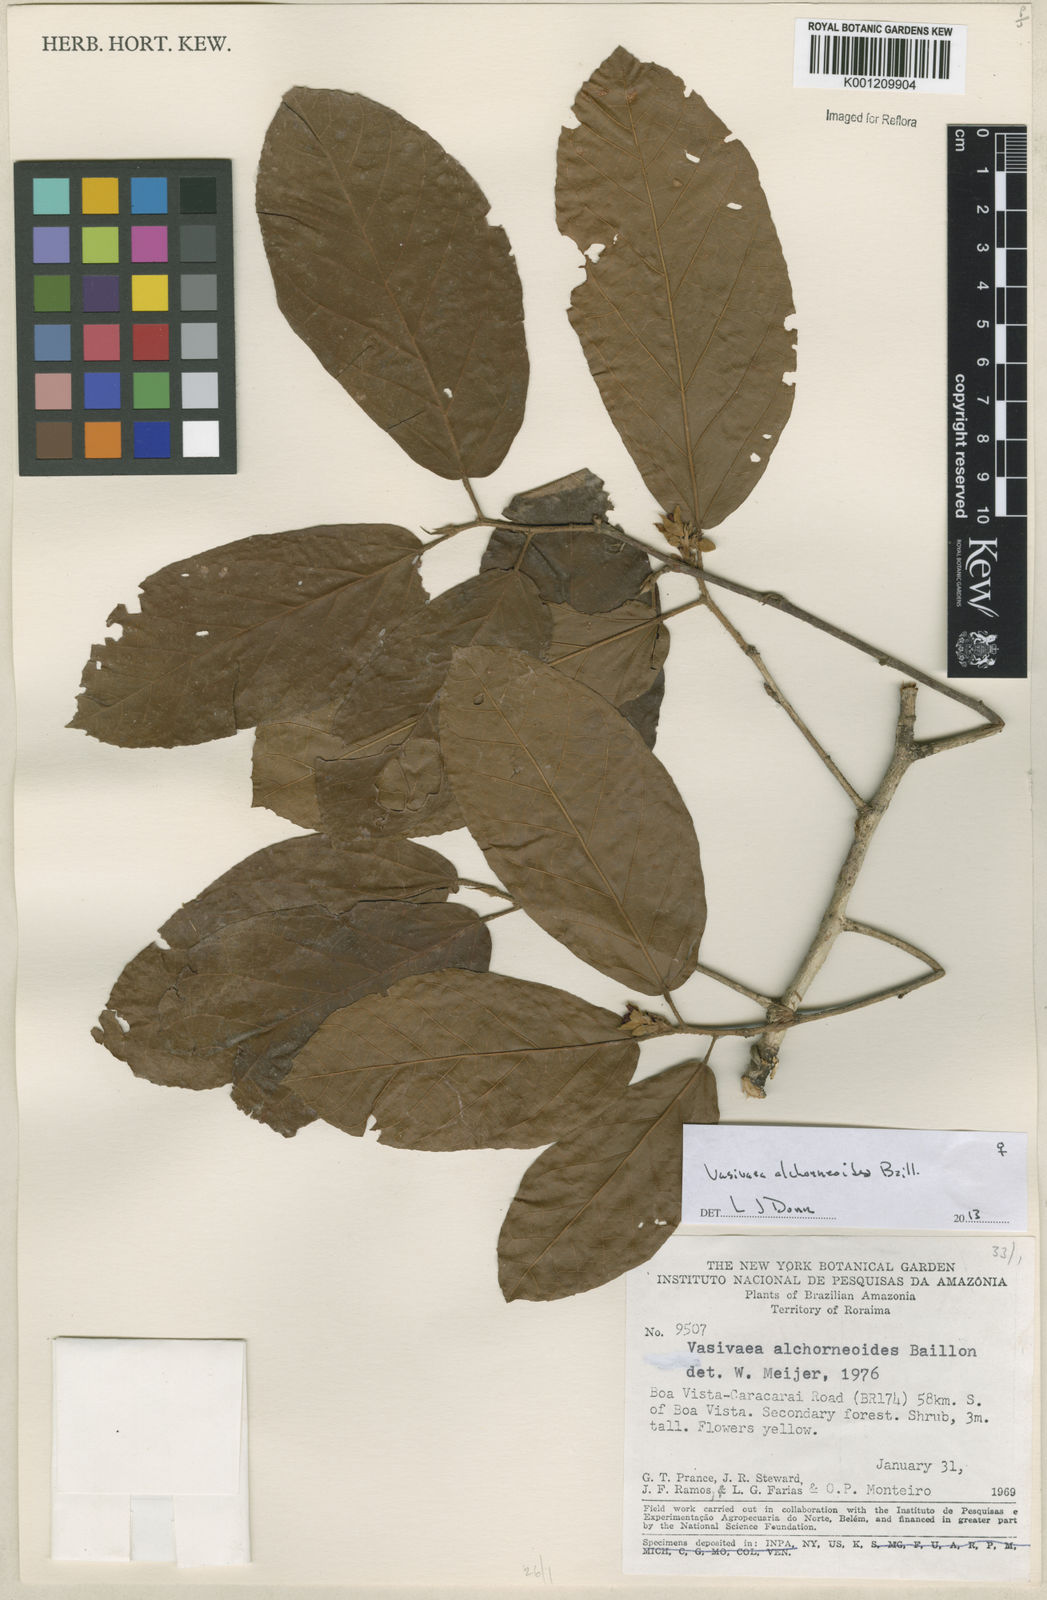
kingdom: Plantae
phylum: Tracheophyta
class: Magnoliopsida
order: Malvales
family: Malvaceae
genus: Vasivaea
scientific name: Vasivaea alchorneoides
